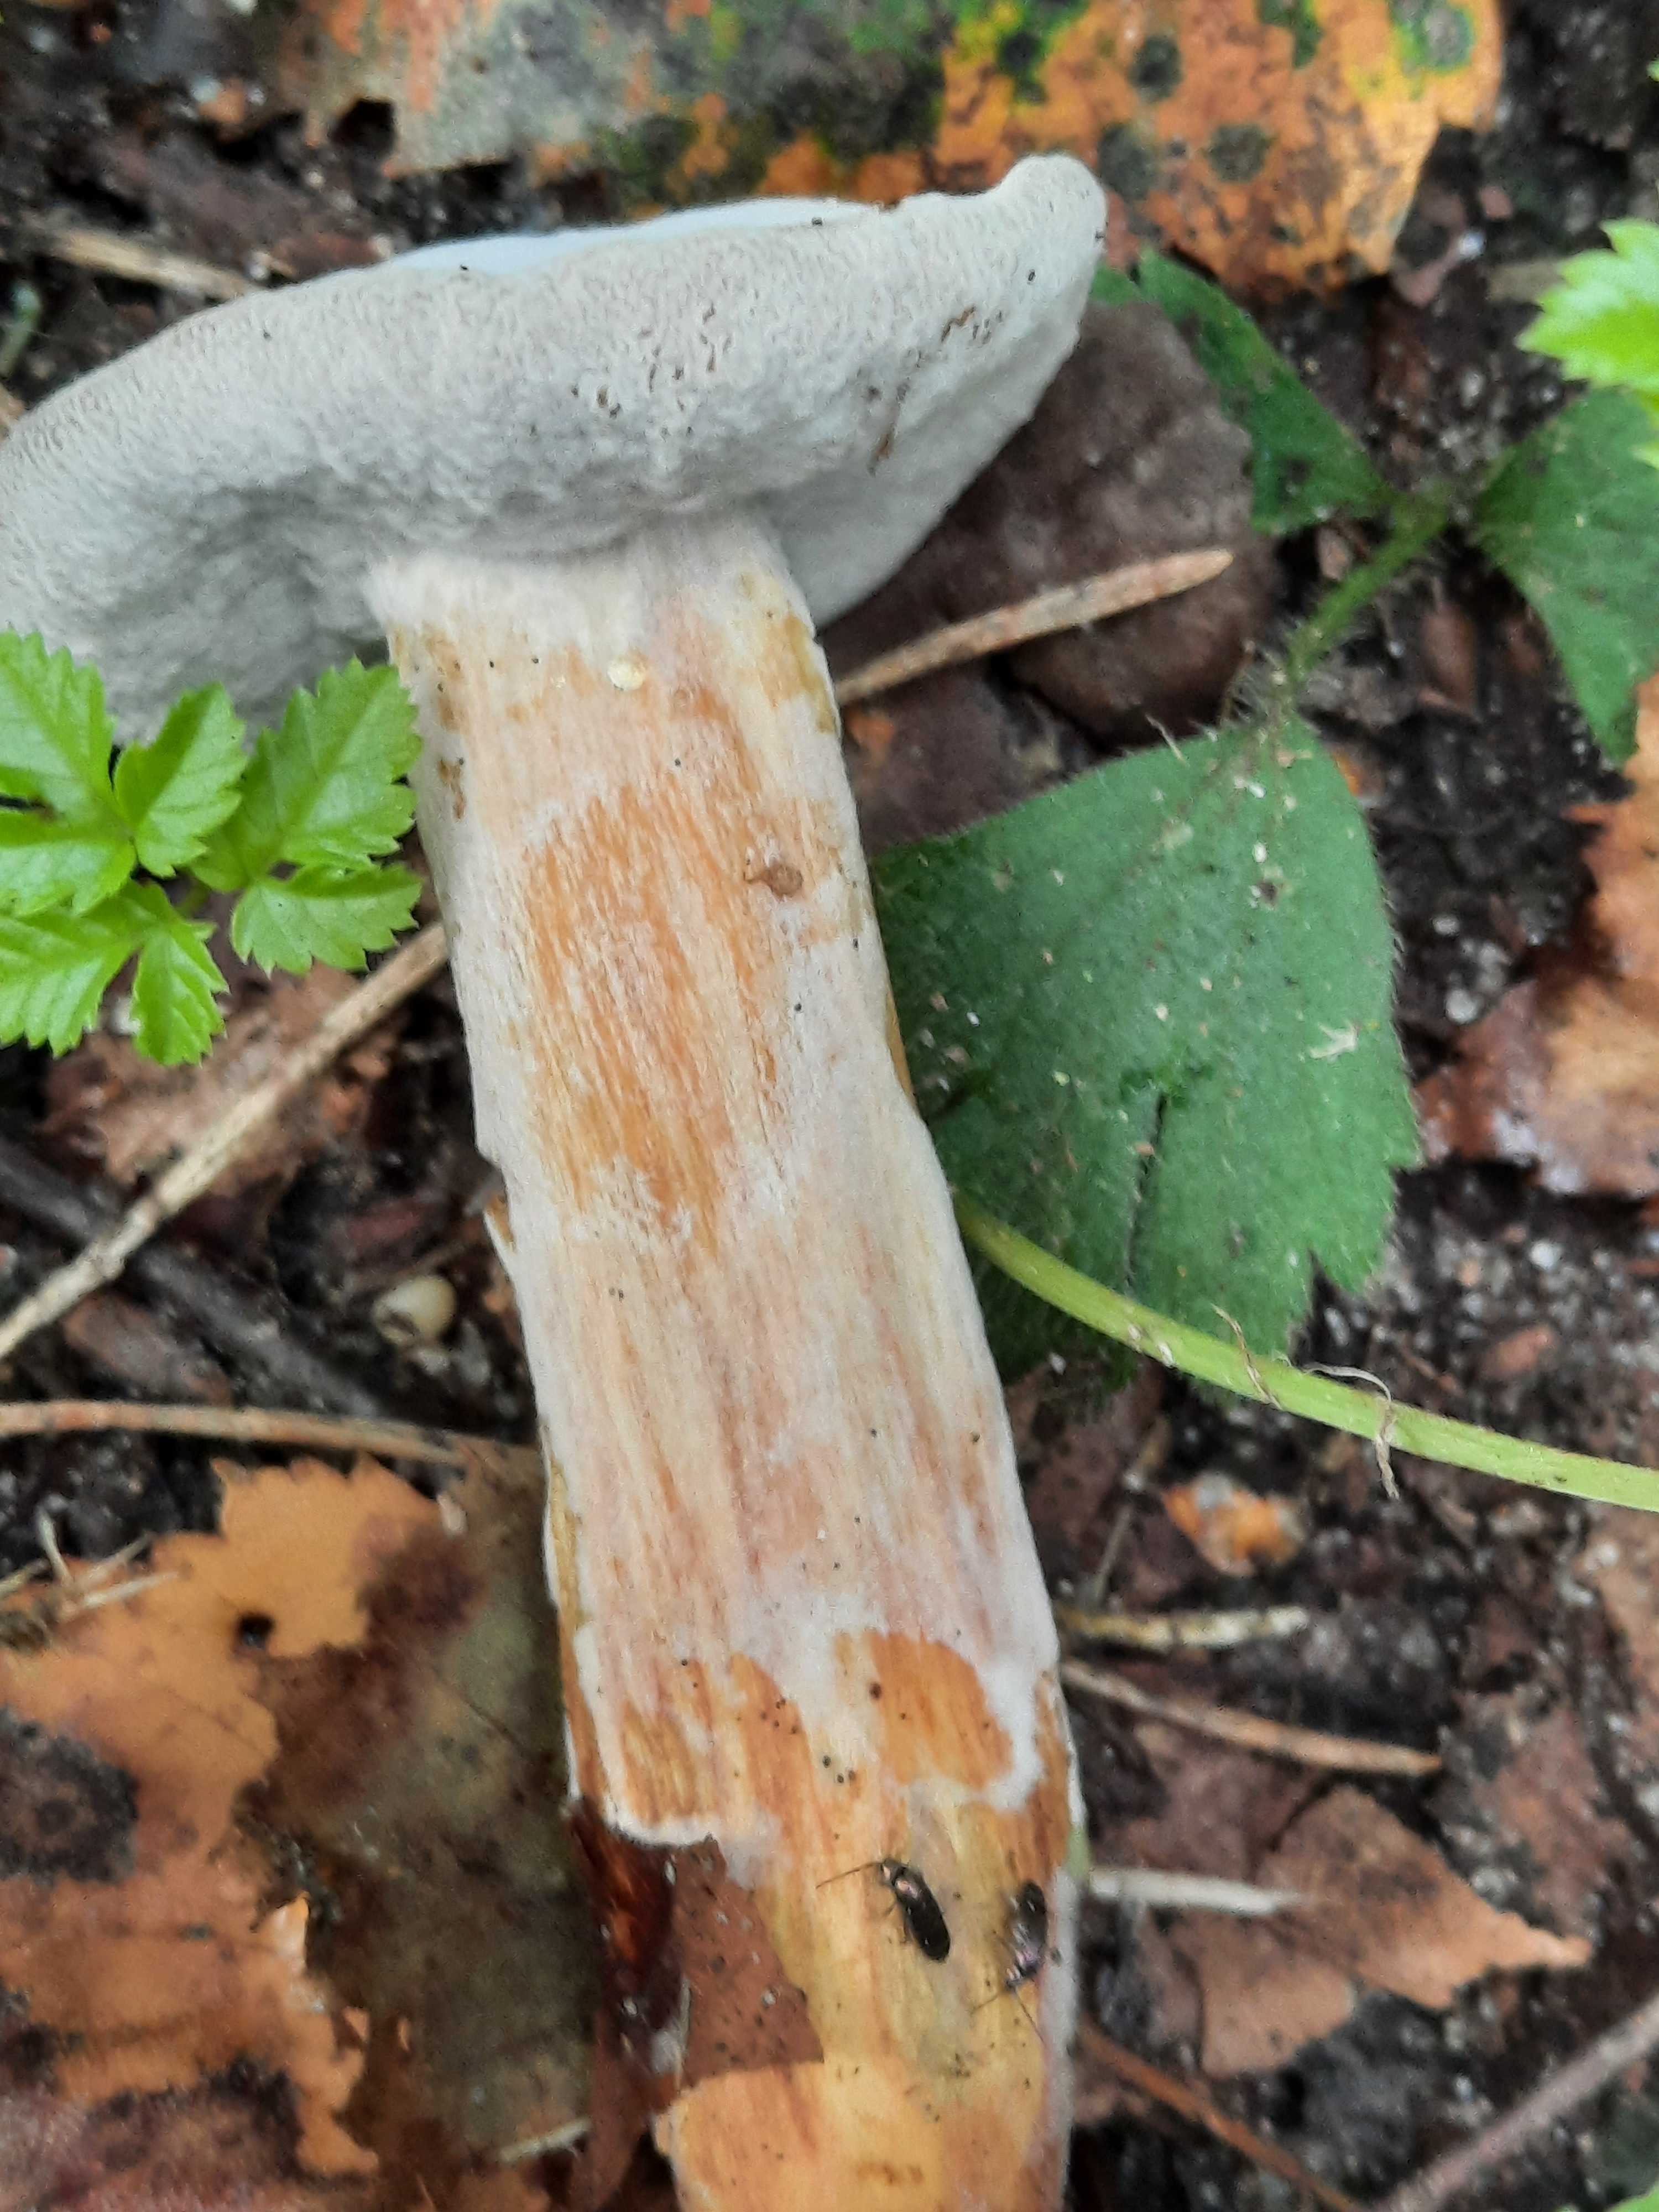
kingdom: Fungi
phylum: Ascomycota
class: Sordariomycetes
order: Hypocreales
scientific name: Hypocreales
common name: kødkerneordenen
